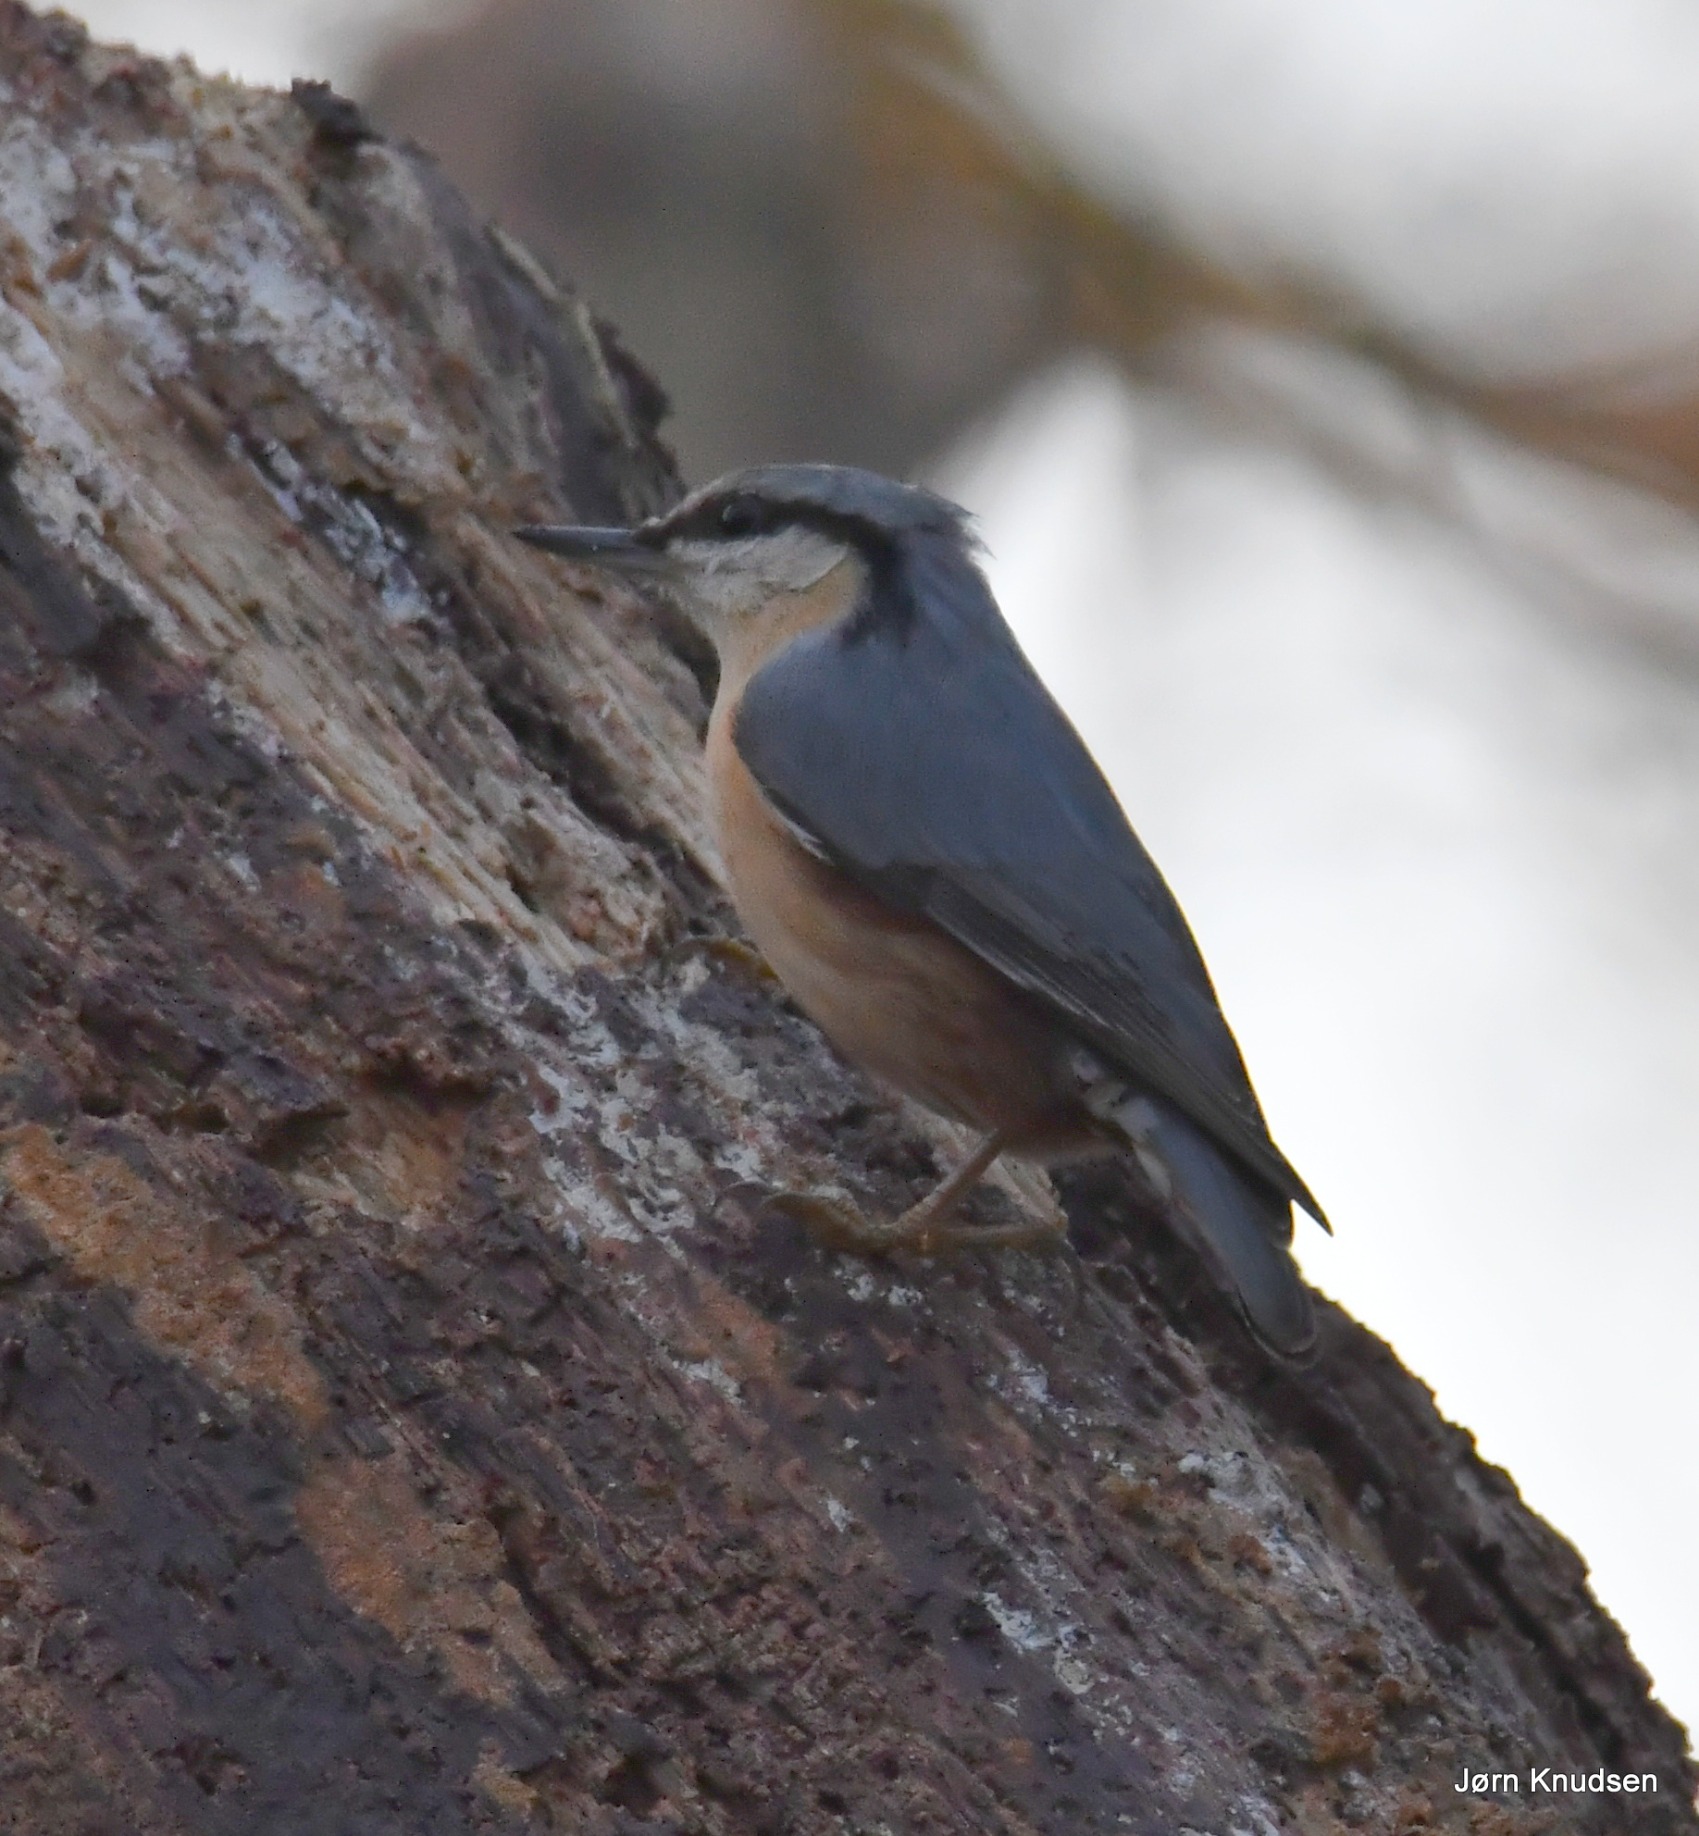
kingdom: Animalia
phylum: Chordata
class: Aves
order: Passeriformes
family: Sittidae
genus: Sitta
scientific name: Sitta europaea
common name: Spætmejse
